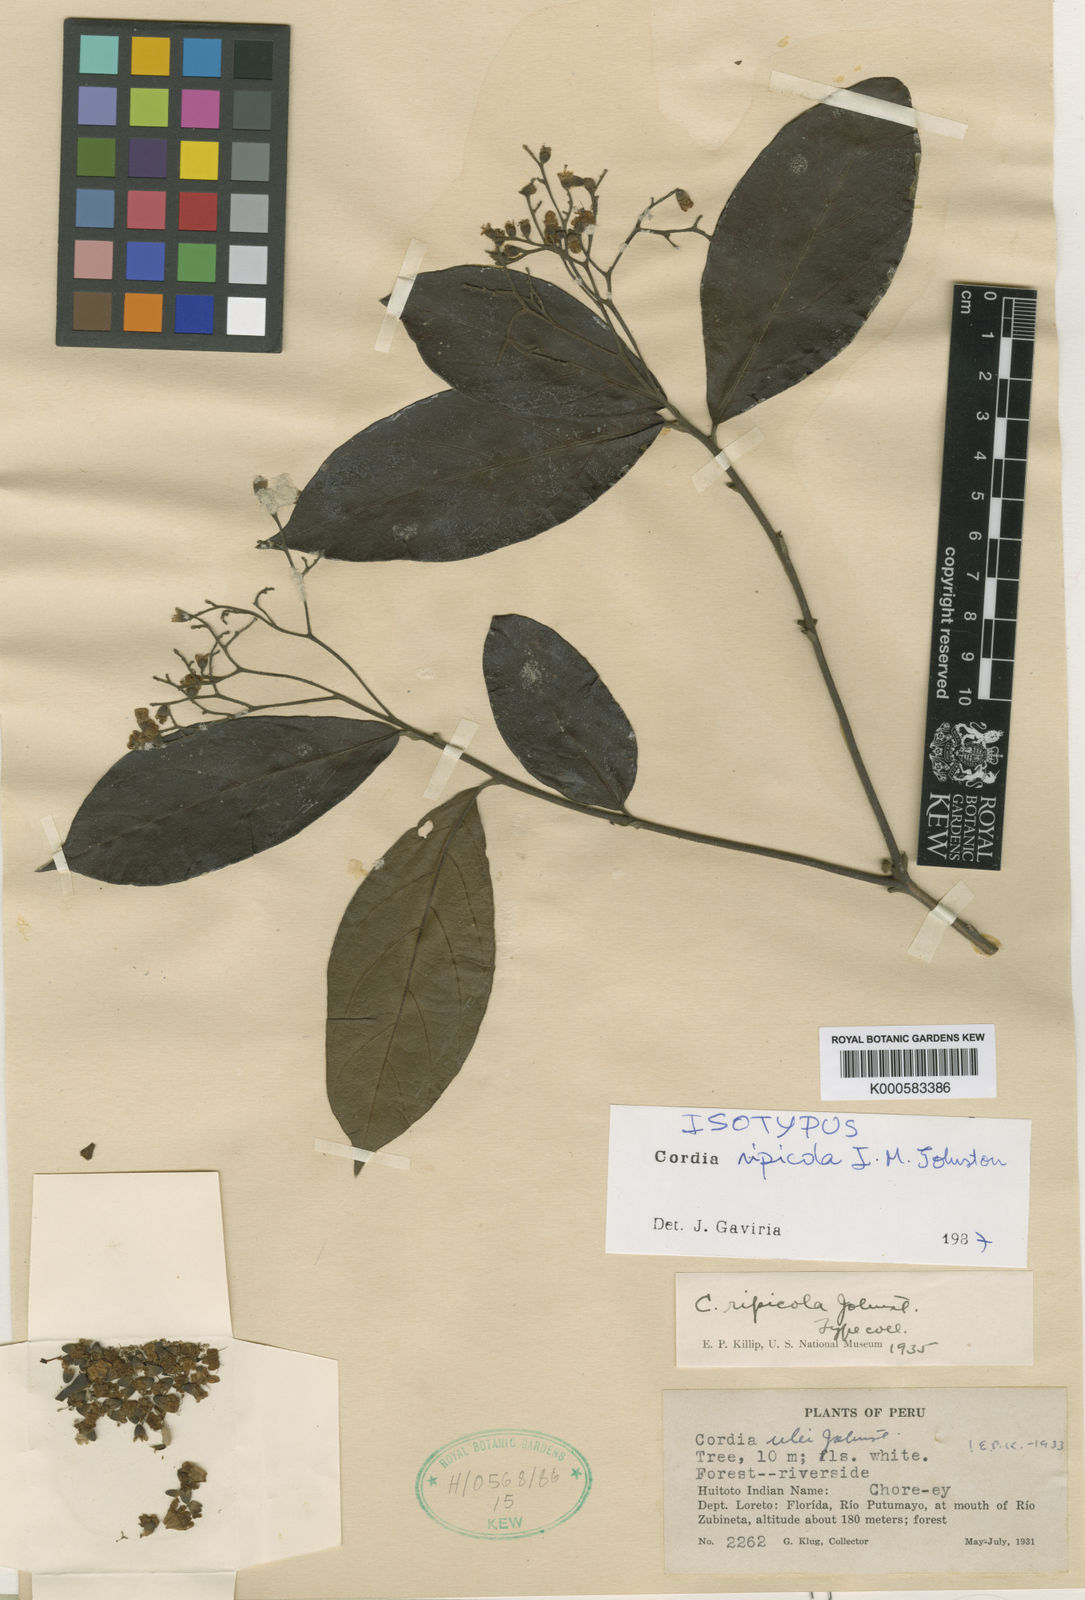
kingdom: Plantae
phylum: Tracheophyta
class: Magnoliopsida
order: Boraginales
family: Cordiaceae
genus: Cordia
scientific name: Cordia ripicola
